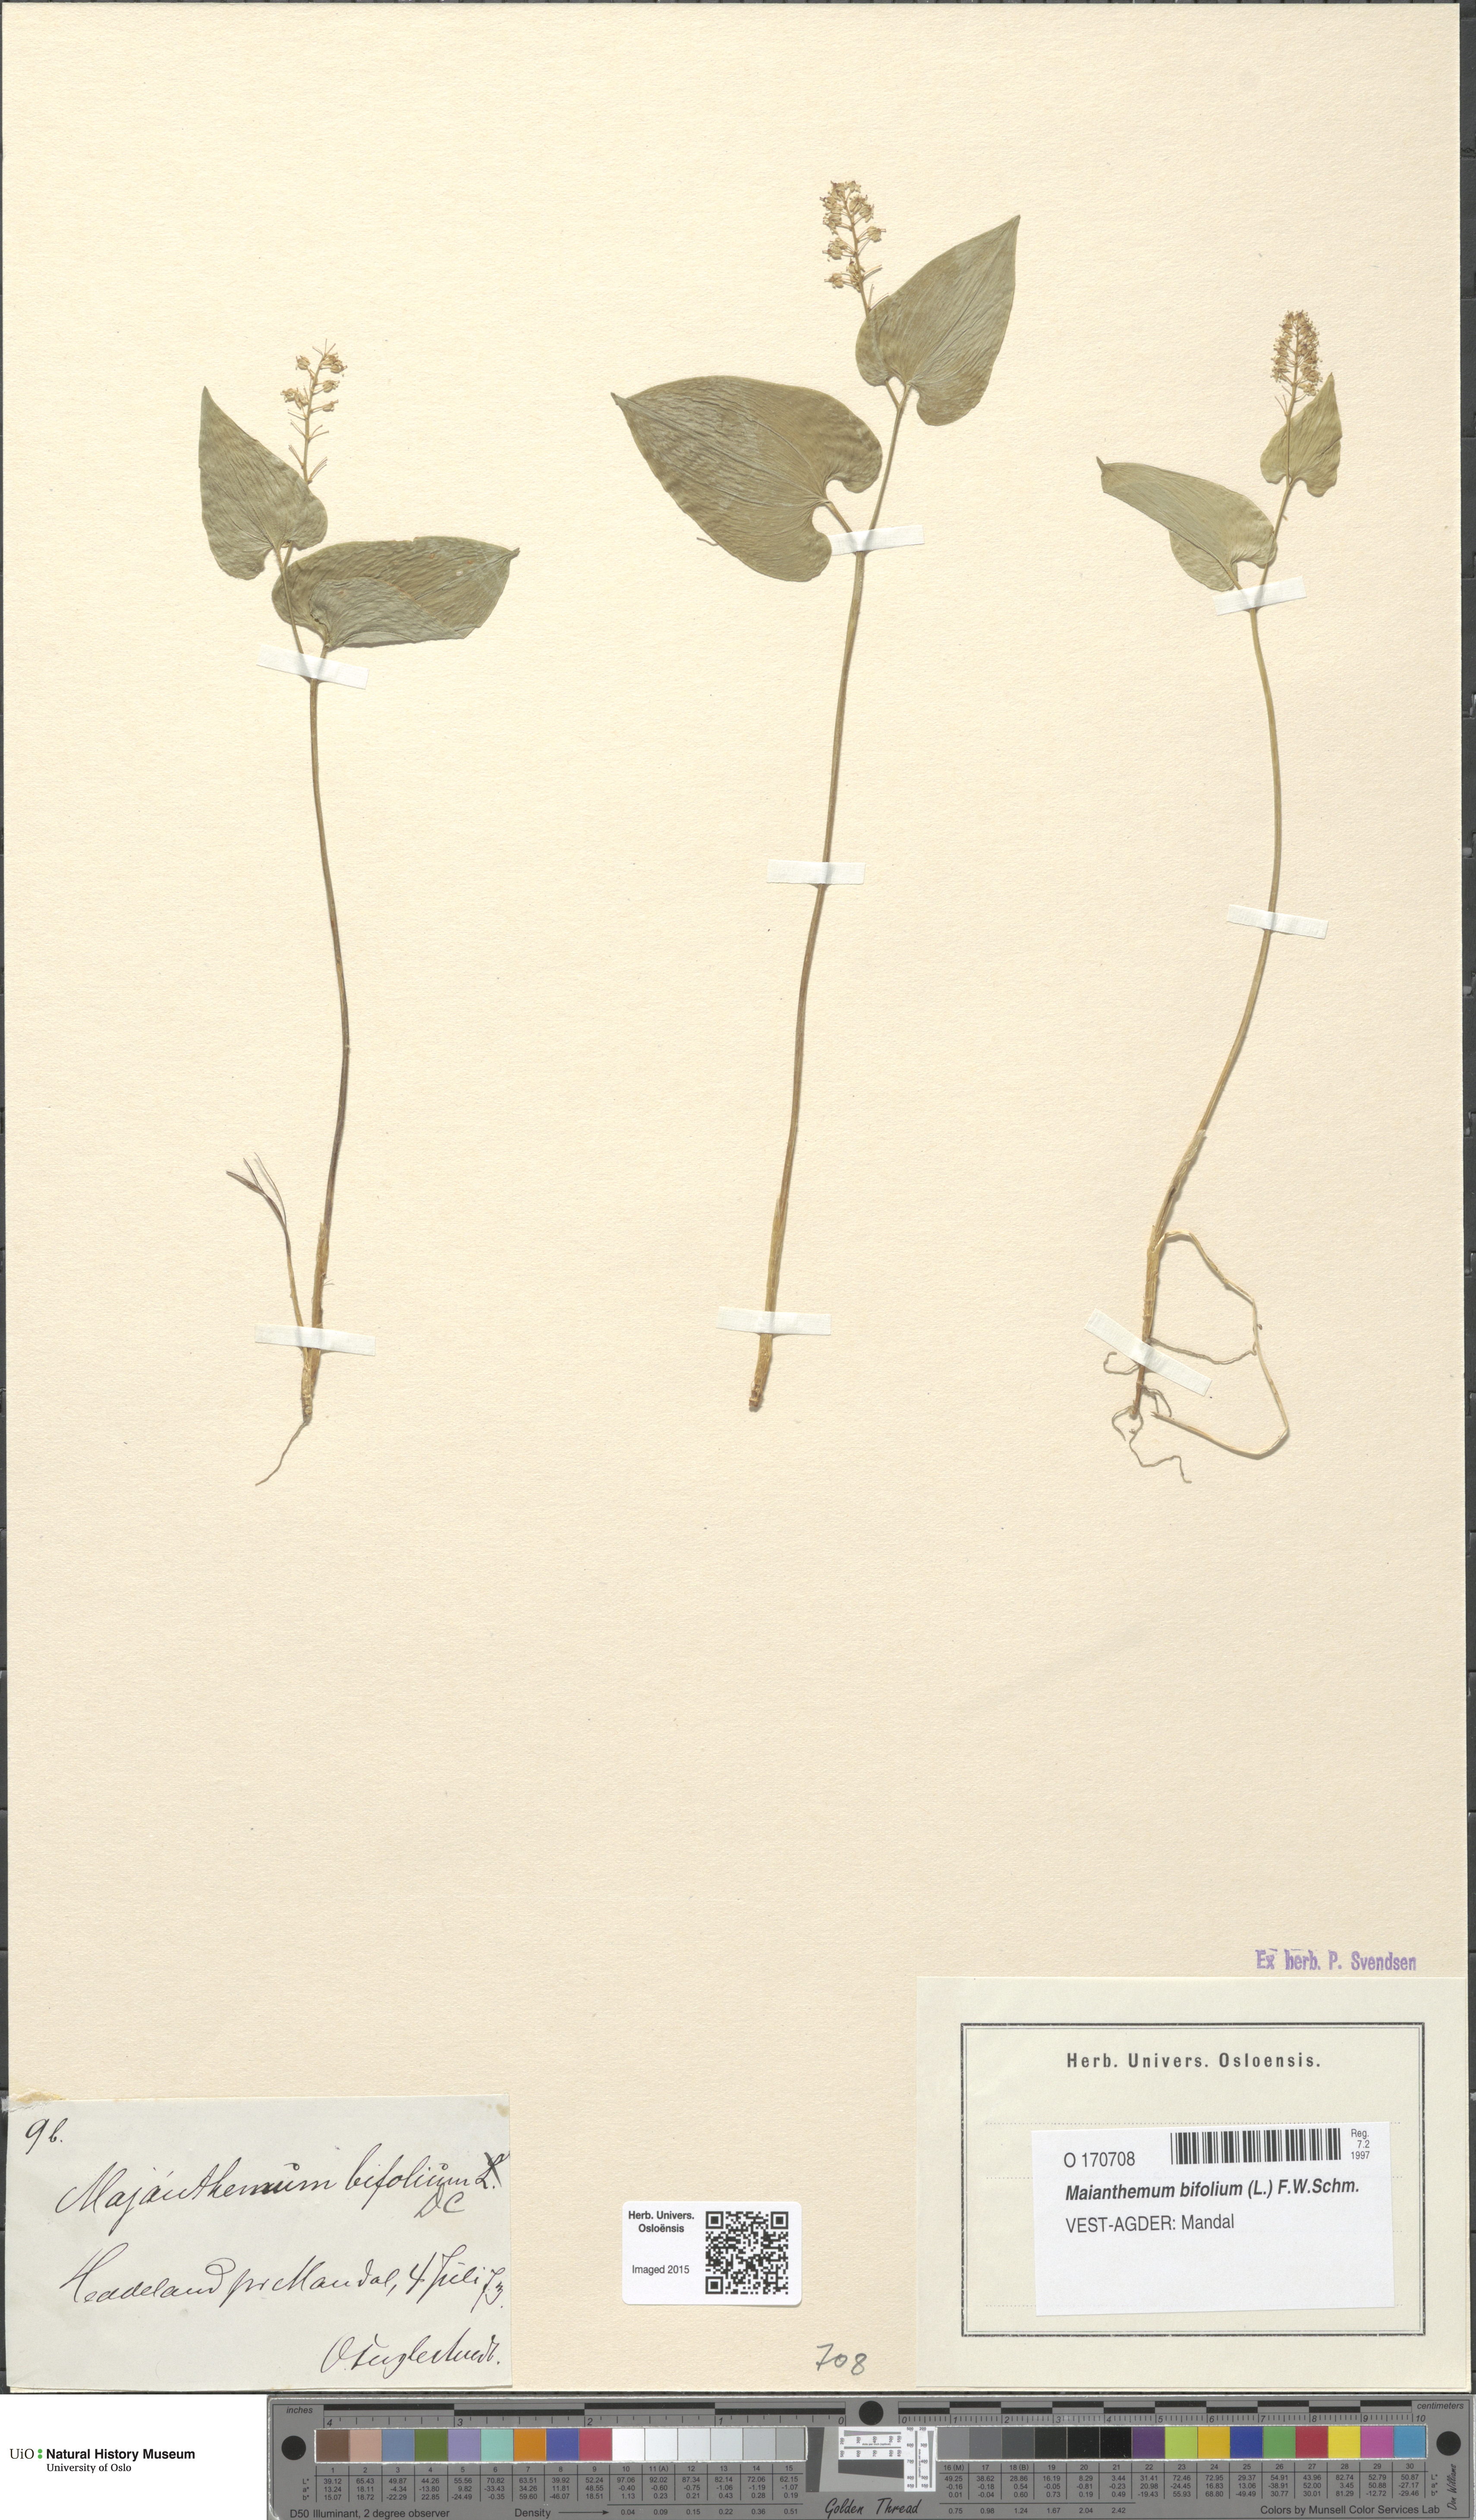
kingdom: Plantae
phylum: Tracheophyta
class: Liliopsida
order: Asparagales
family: Asparagaceae
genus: Maianthemum
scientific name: Maianthemum bifolium
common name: May lily
